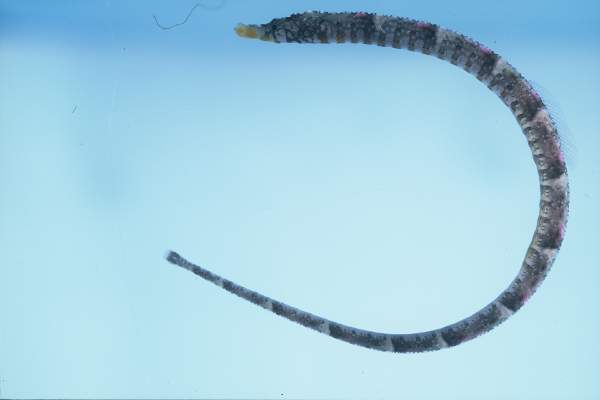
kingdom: Animalia
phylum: Chordata
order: Syngnathiformes
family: Syngnathidae
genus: Halicampus
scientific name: Halicampus zavorensis
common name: Zavora pipefish
